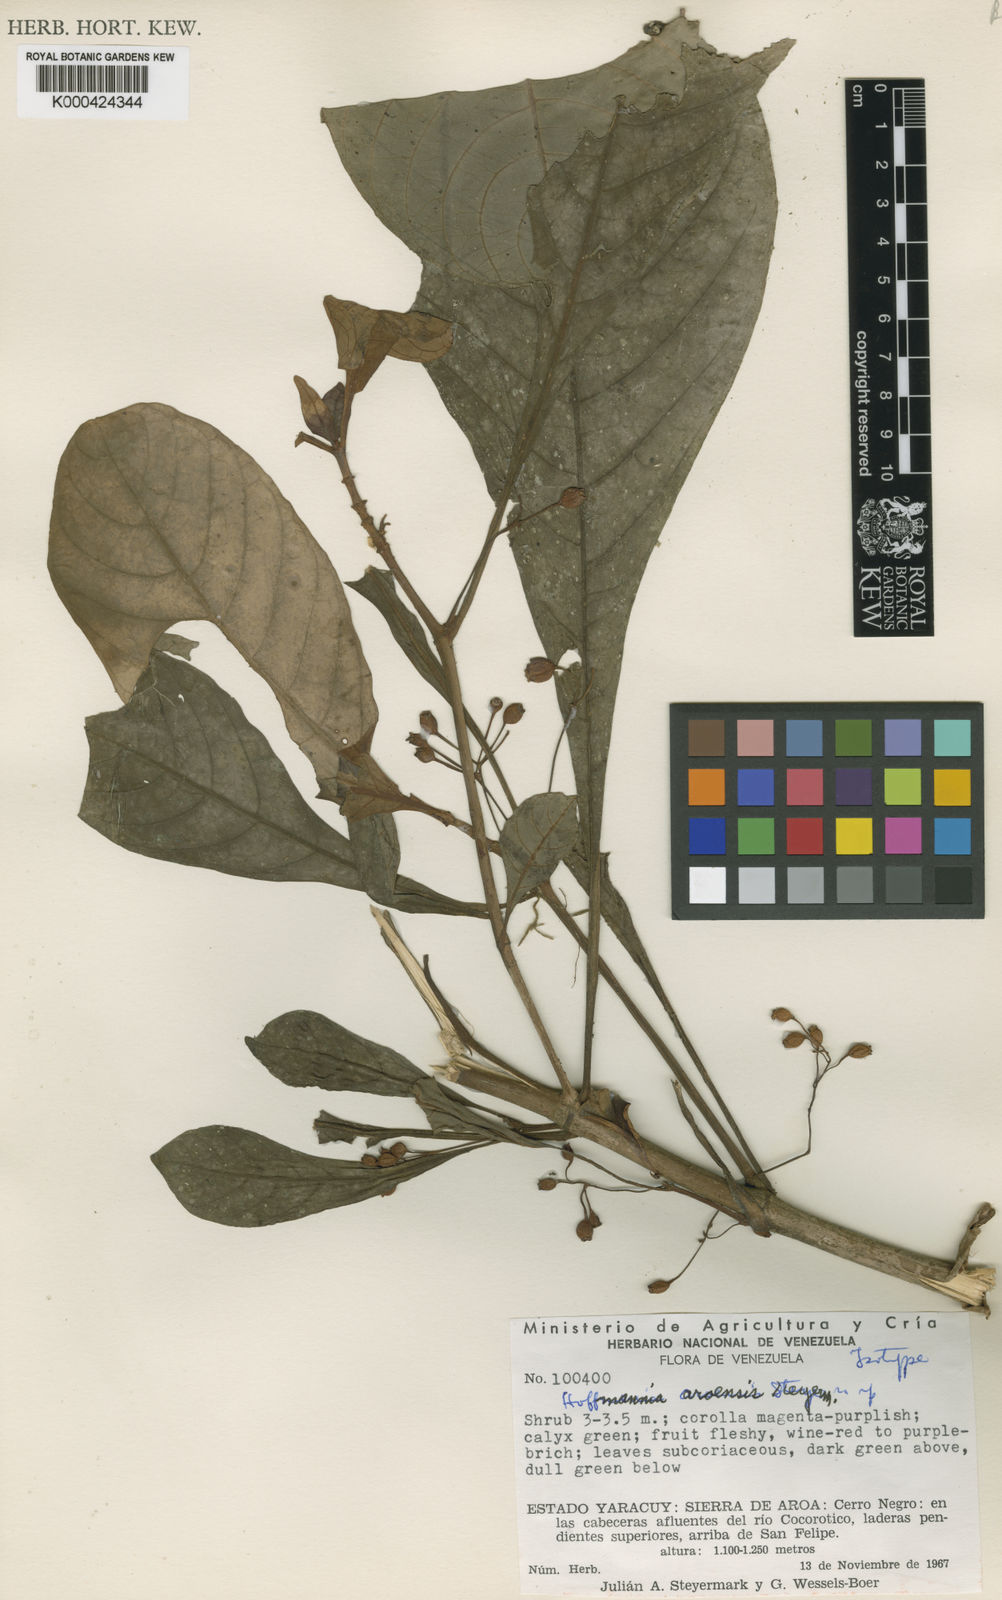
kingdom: Plantae
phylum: Tracheophyta
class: Magnoliopsida
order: Gentianales
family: Rubiaceae
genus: Hoffmannia
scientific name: Hoffmannia aroensis
